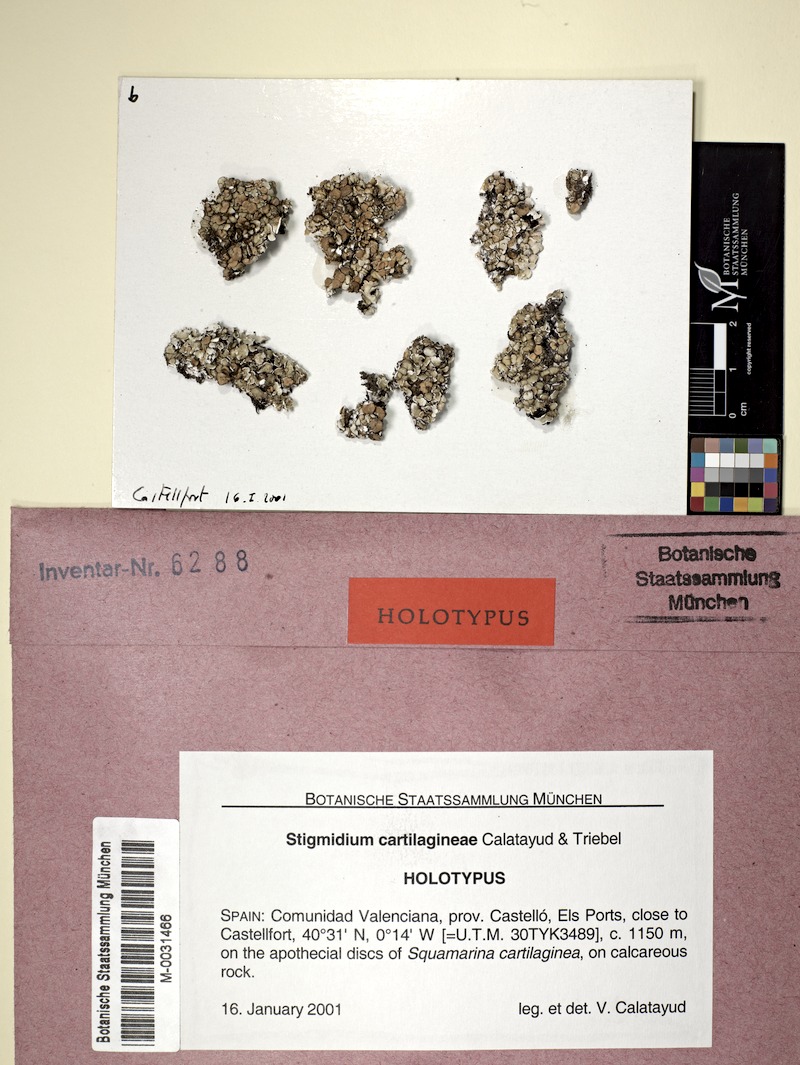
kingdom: Fungi
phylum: Ascomycota
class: Dothideomycetes
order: Mycosphaerellales
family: Mycosphaerellaceae
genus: Stigmidium
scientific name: Stigmidium cartilagineae
